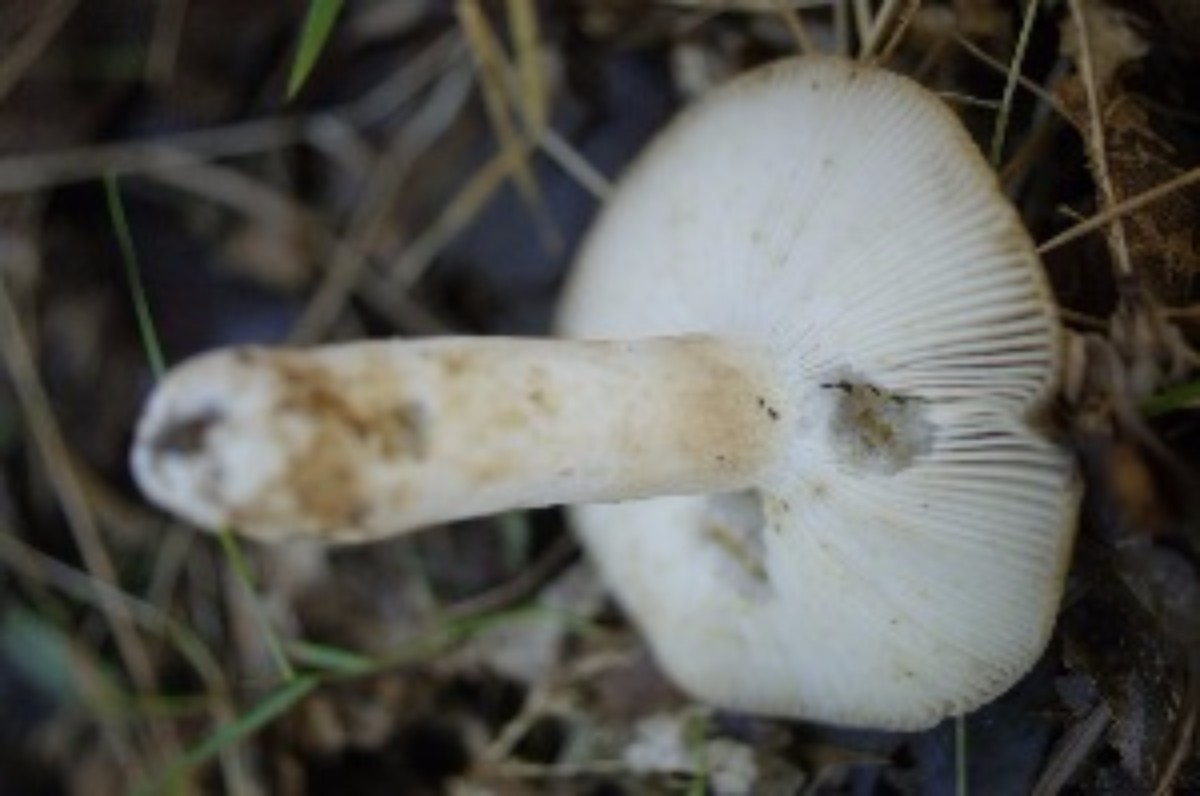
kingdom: Fungi
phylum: Basidiomycota
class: Agaricomycetes
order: Russulales
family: Russulaceae
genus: Russula
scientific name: Russula grata
